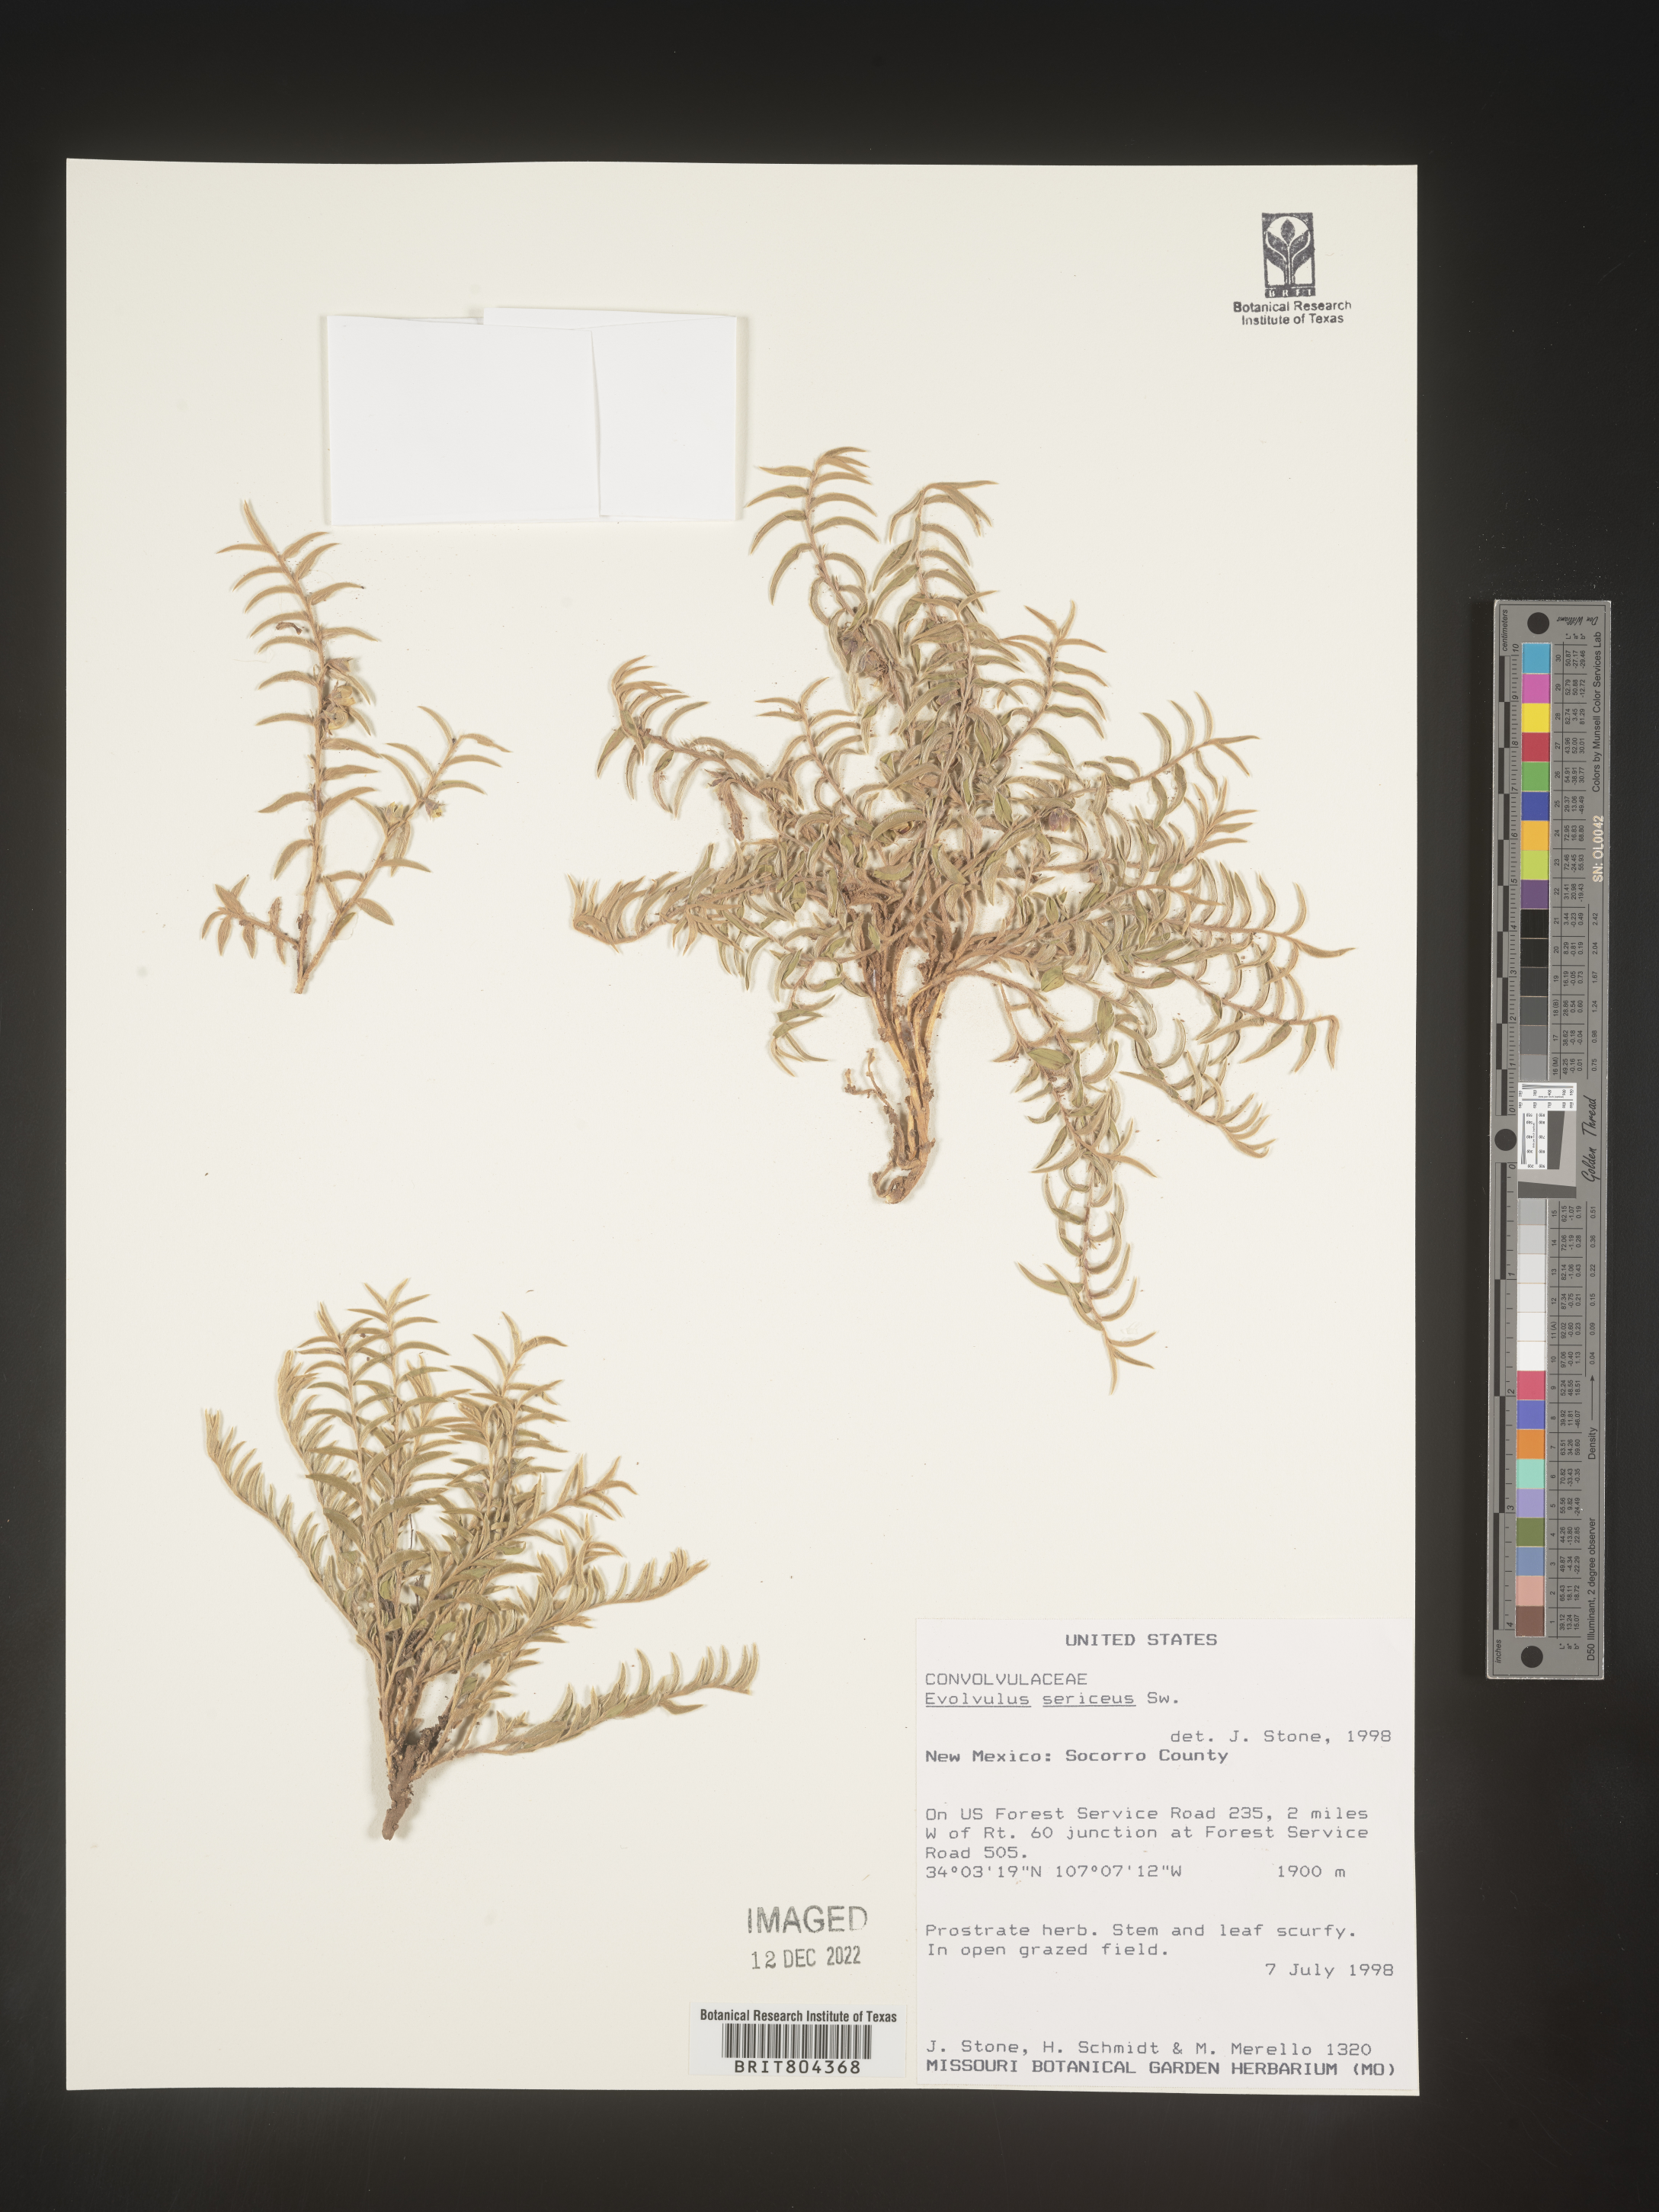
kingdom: Plantae
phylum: Tracheophyta
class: Magnoliopsida
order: Solanales
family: Convolvulaceae
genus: Evolvulus
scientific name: Evolvulus sericeus
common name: Blue dots
